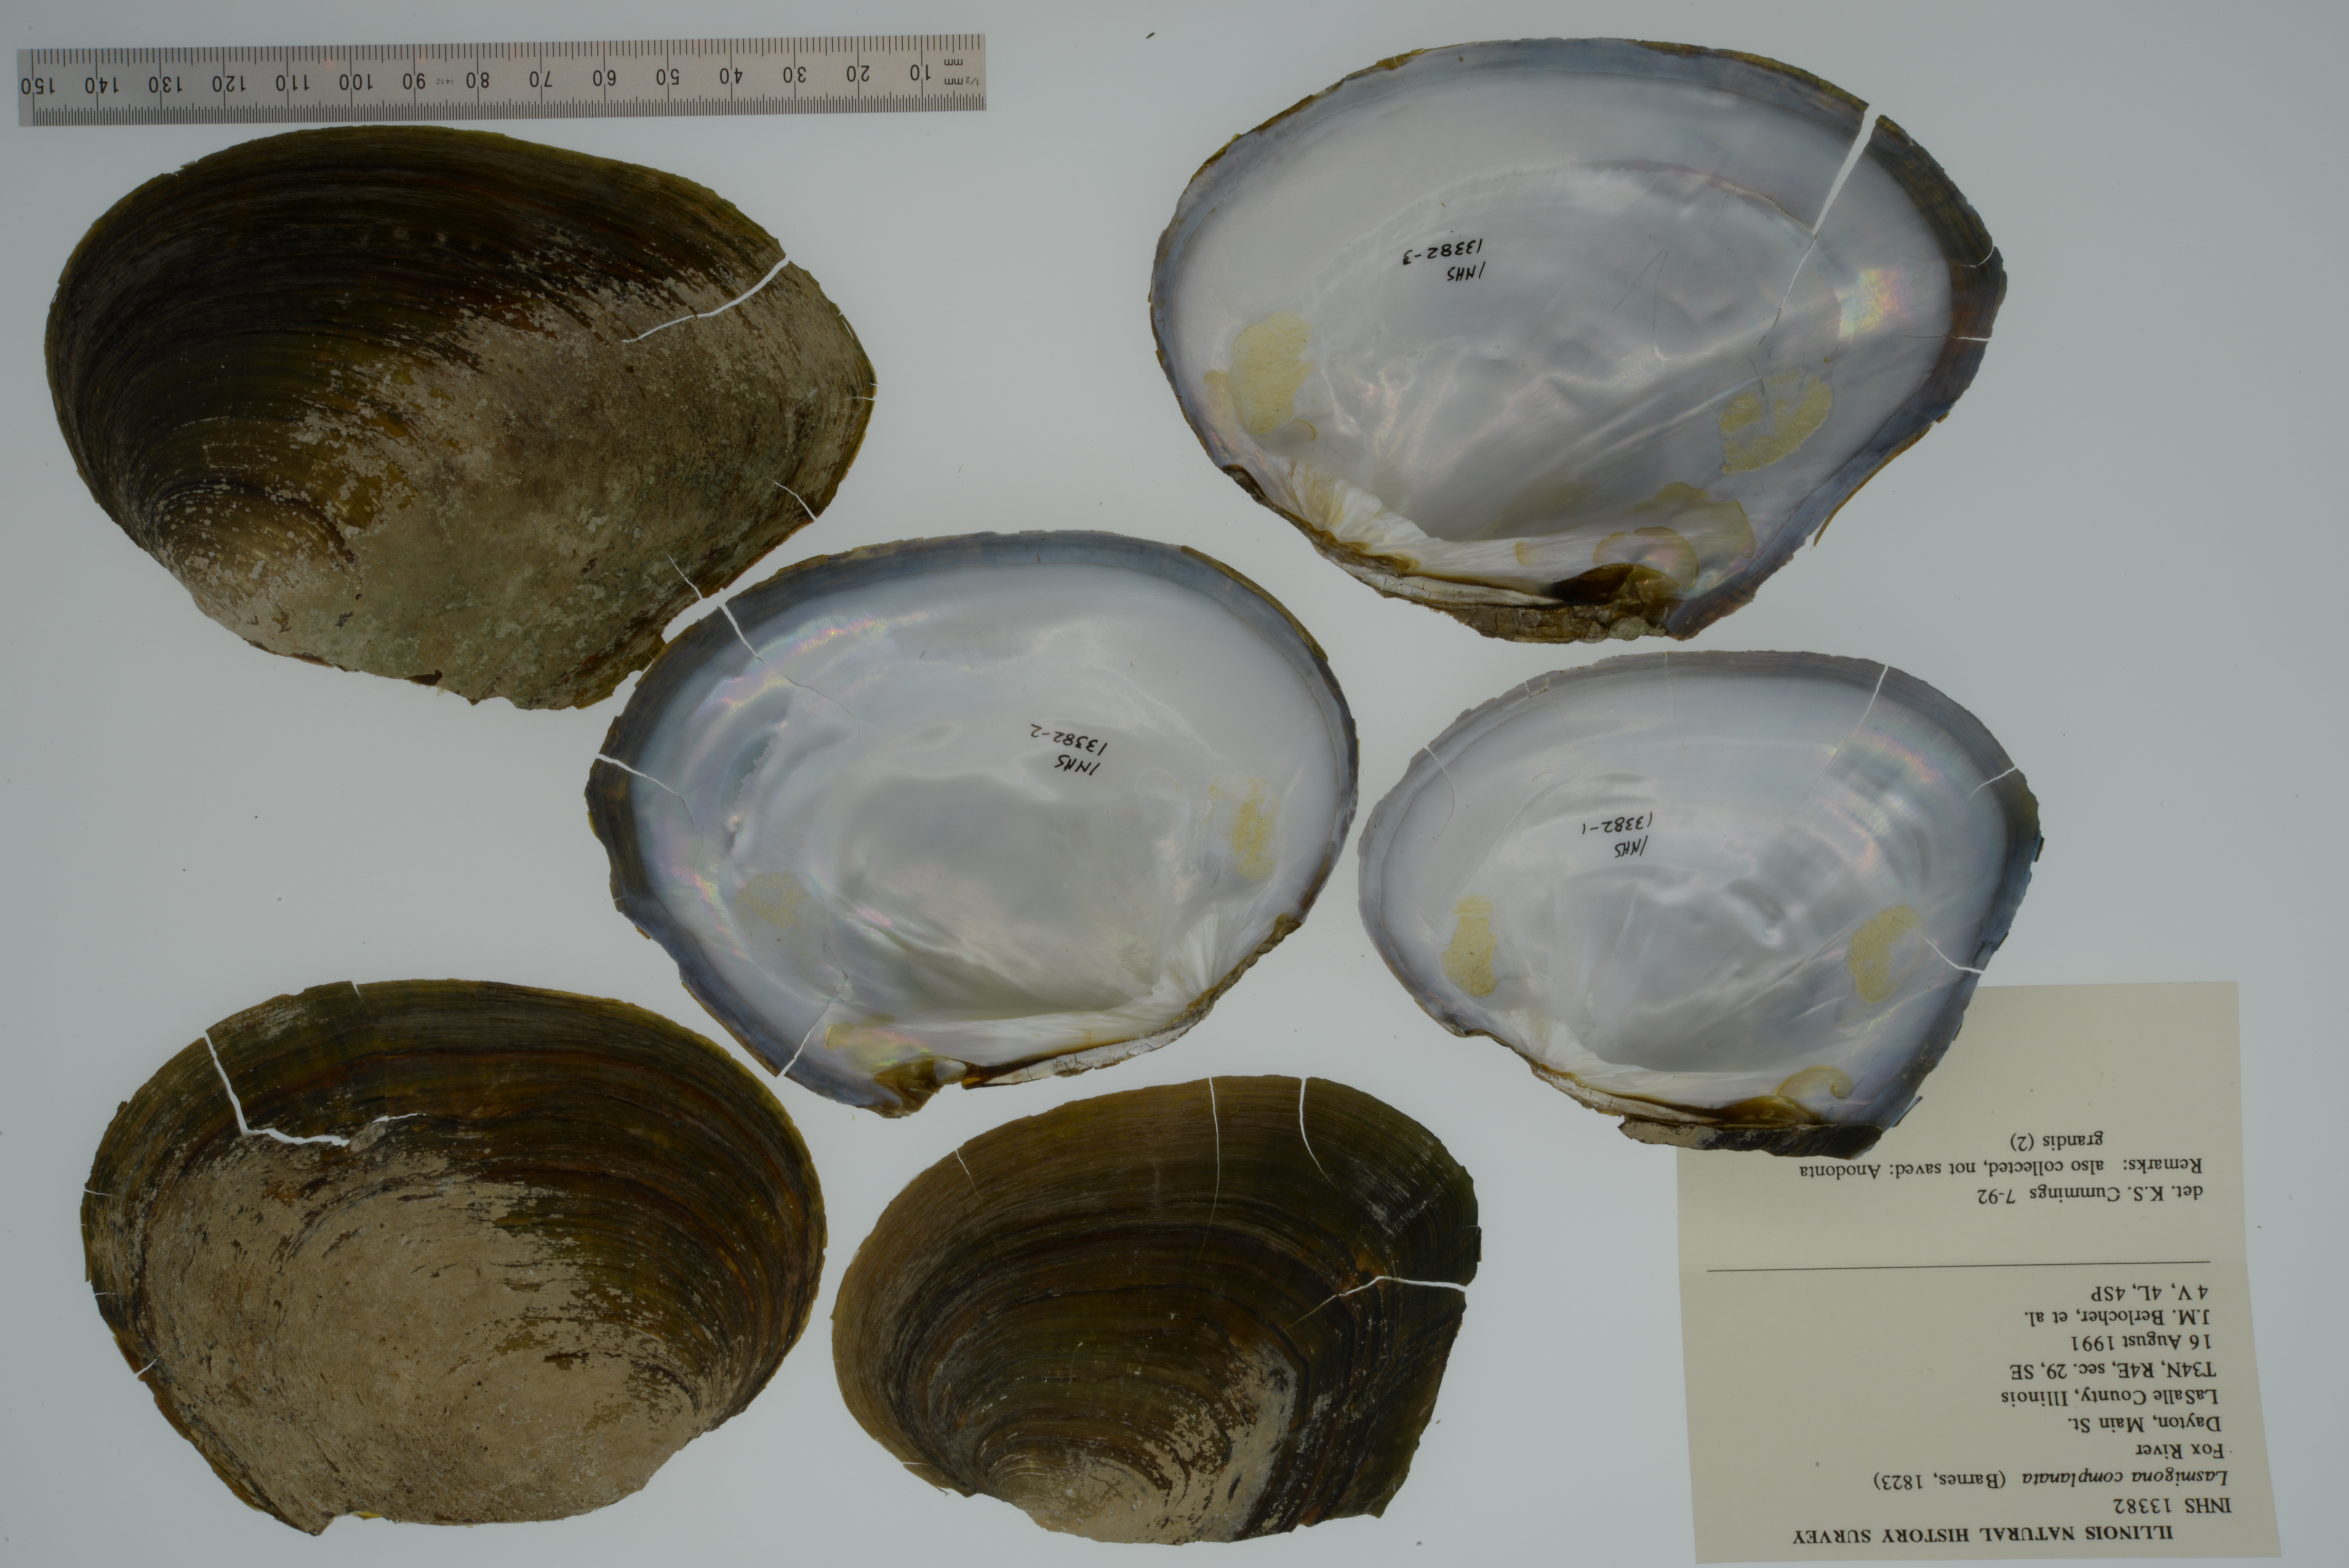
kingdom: Animalia
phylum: Mollusca
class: Bivalvia
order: Unionida
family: Unionidae
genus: Lasmigona
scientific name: Lasmigona complanata
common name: White heelsplitter
